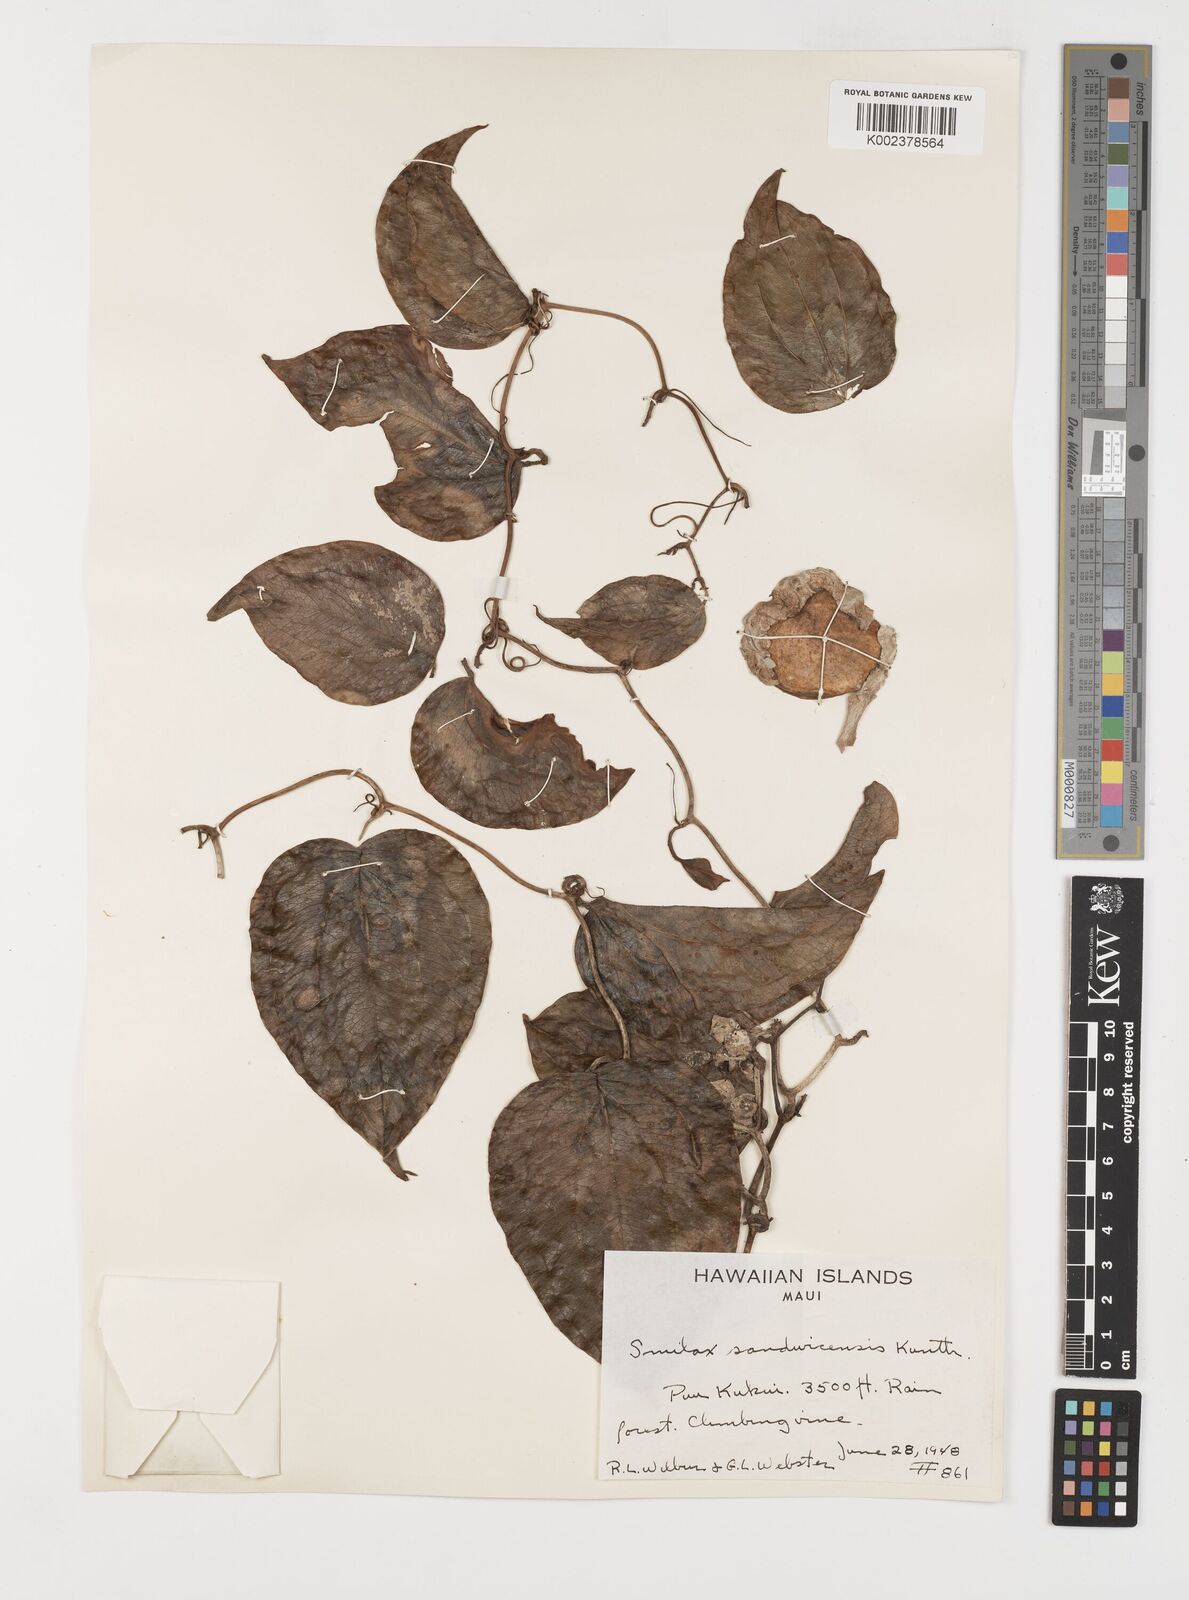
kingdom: Plantae
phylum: Tracheophyta
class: Liliopsida
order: Liliales
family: Smilacaceae
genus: Smilax
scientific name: Smilax melastomifolia
